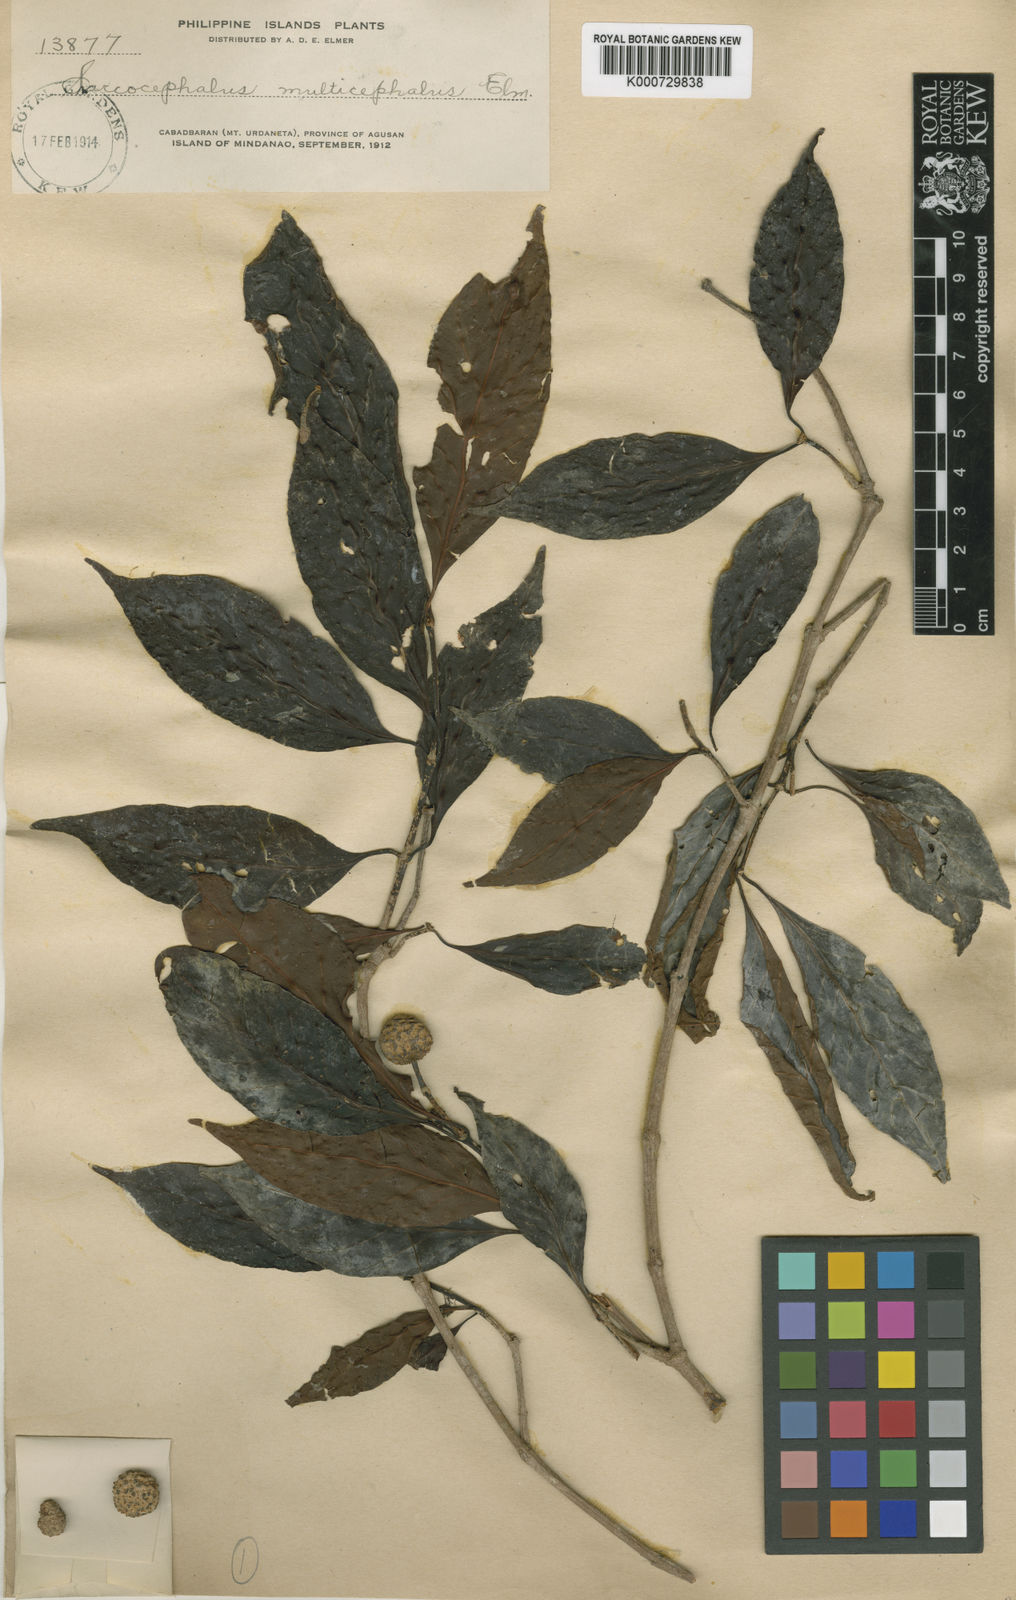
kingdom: Plantae
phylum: Tracheophyta
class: Magnoliopsida
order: Gentianales
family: Rubiaceae
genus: Nauclea
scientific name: Nauclea subdita
